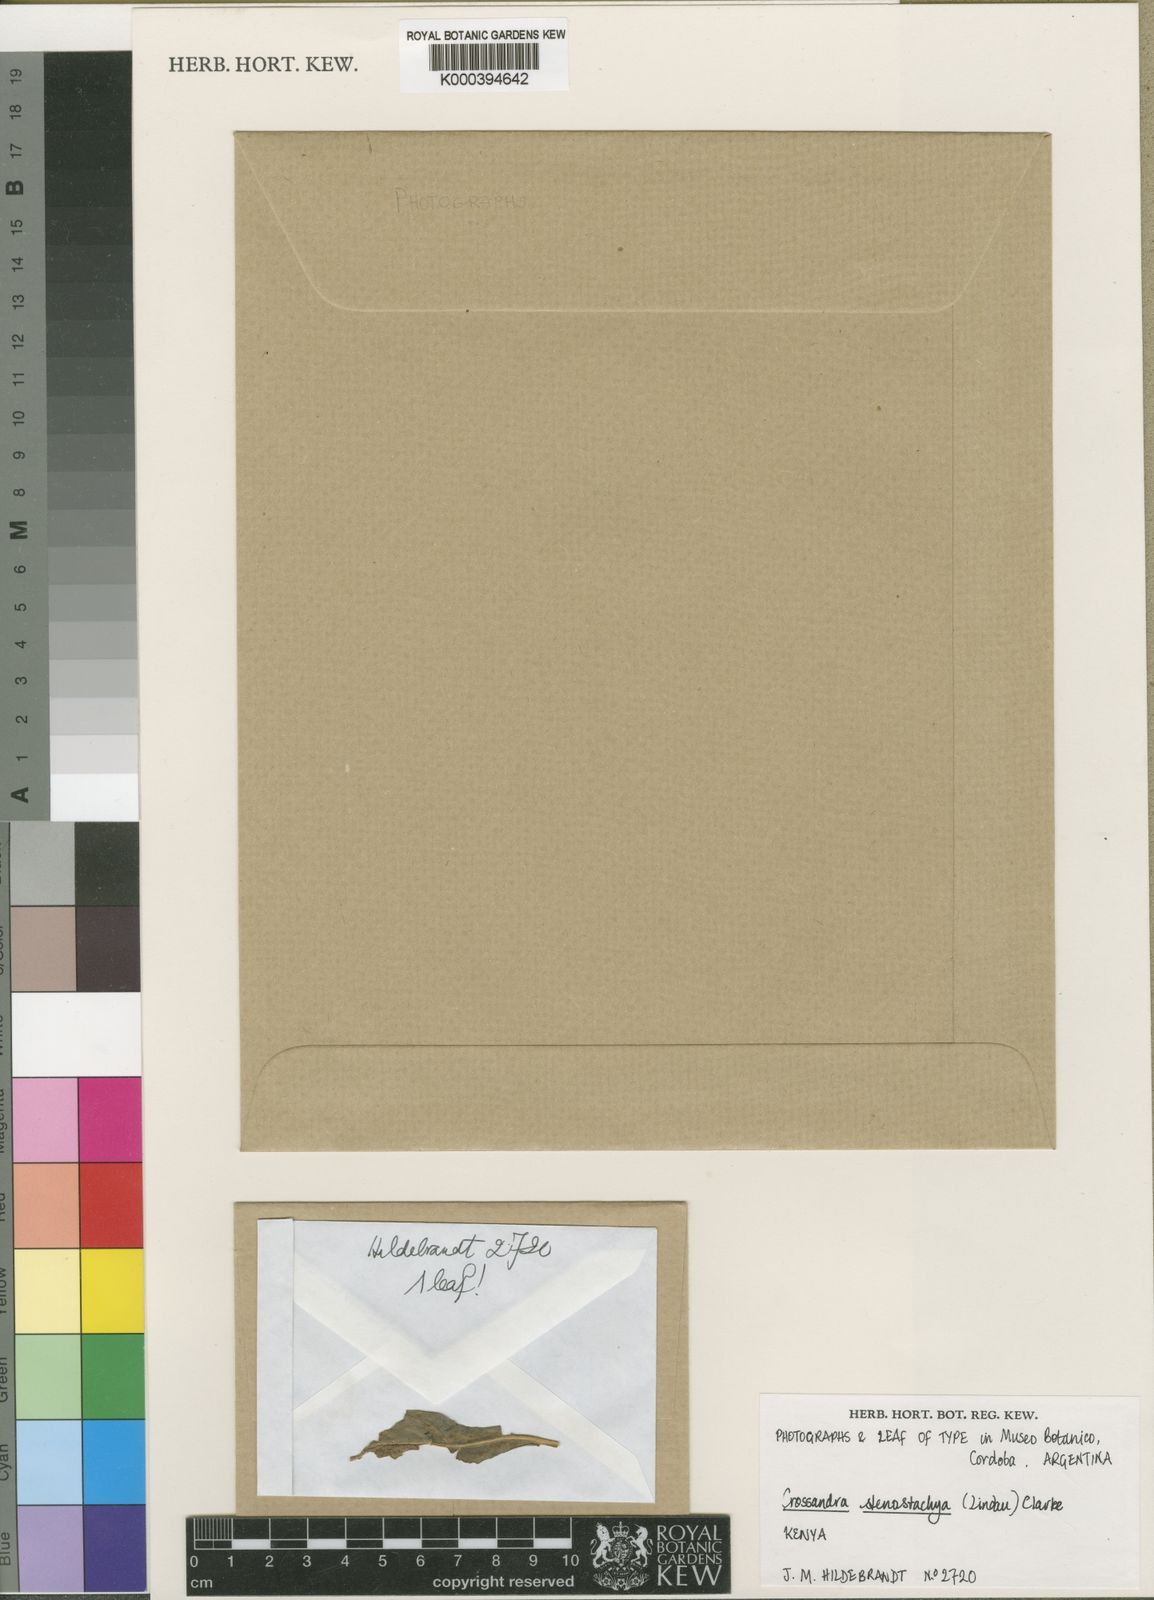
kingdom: Plantae
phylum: Tracheophyta
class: Magnoliopsida
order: Lamiales
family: Acanthaceae
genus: Crossandra
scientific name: Crossandra stenostachya
